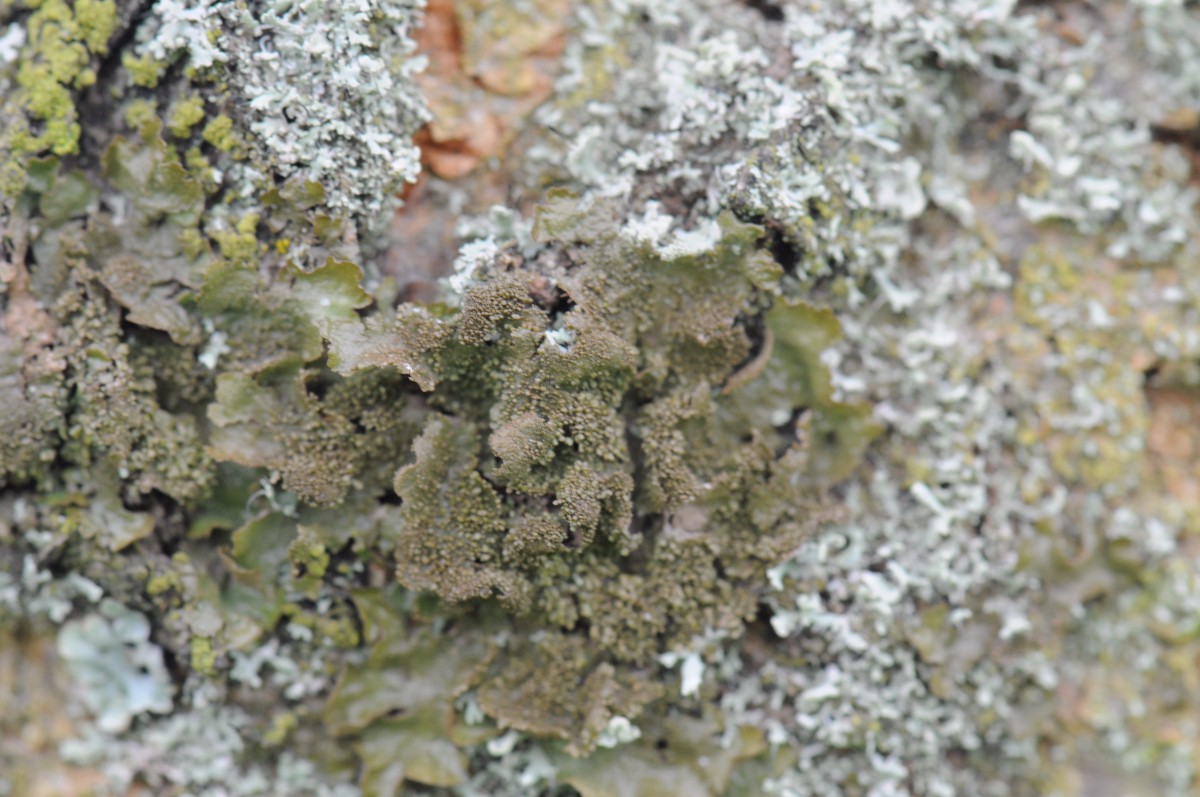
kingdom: Fungi
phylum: Ascomycota
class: Lecanoromycetes
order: Lecanorales
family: Parmeliaceae
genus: Melanohalea
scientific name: Melanohalea exasperatula
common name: kølle-skållav
